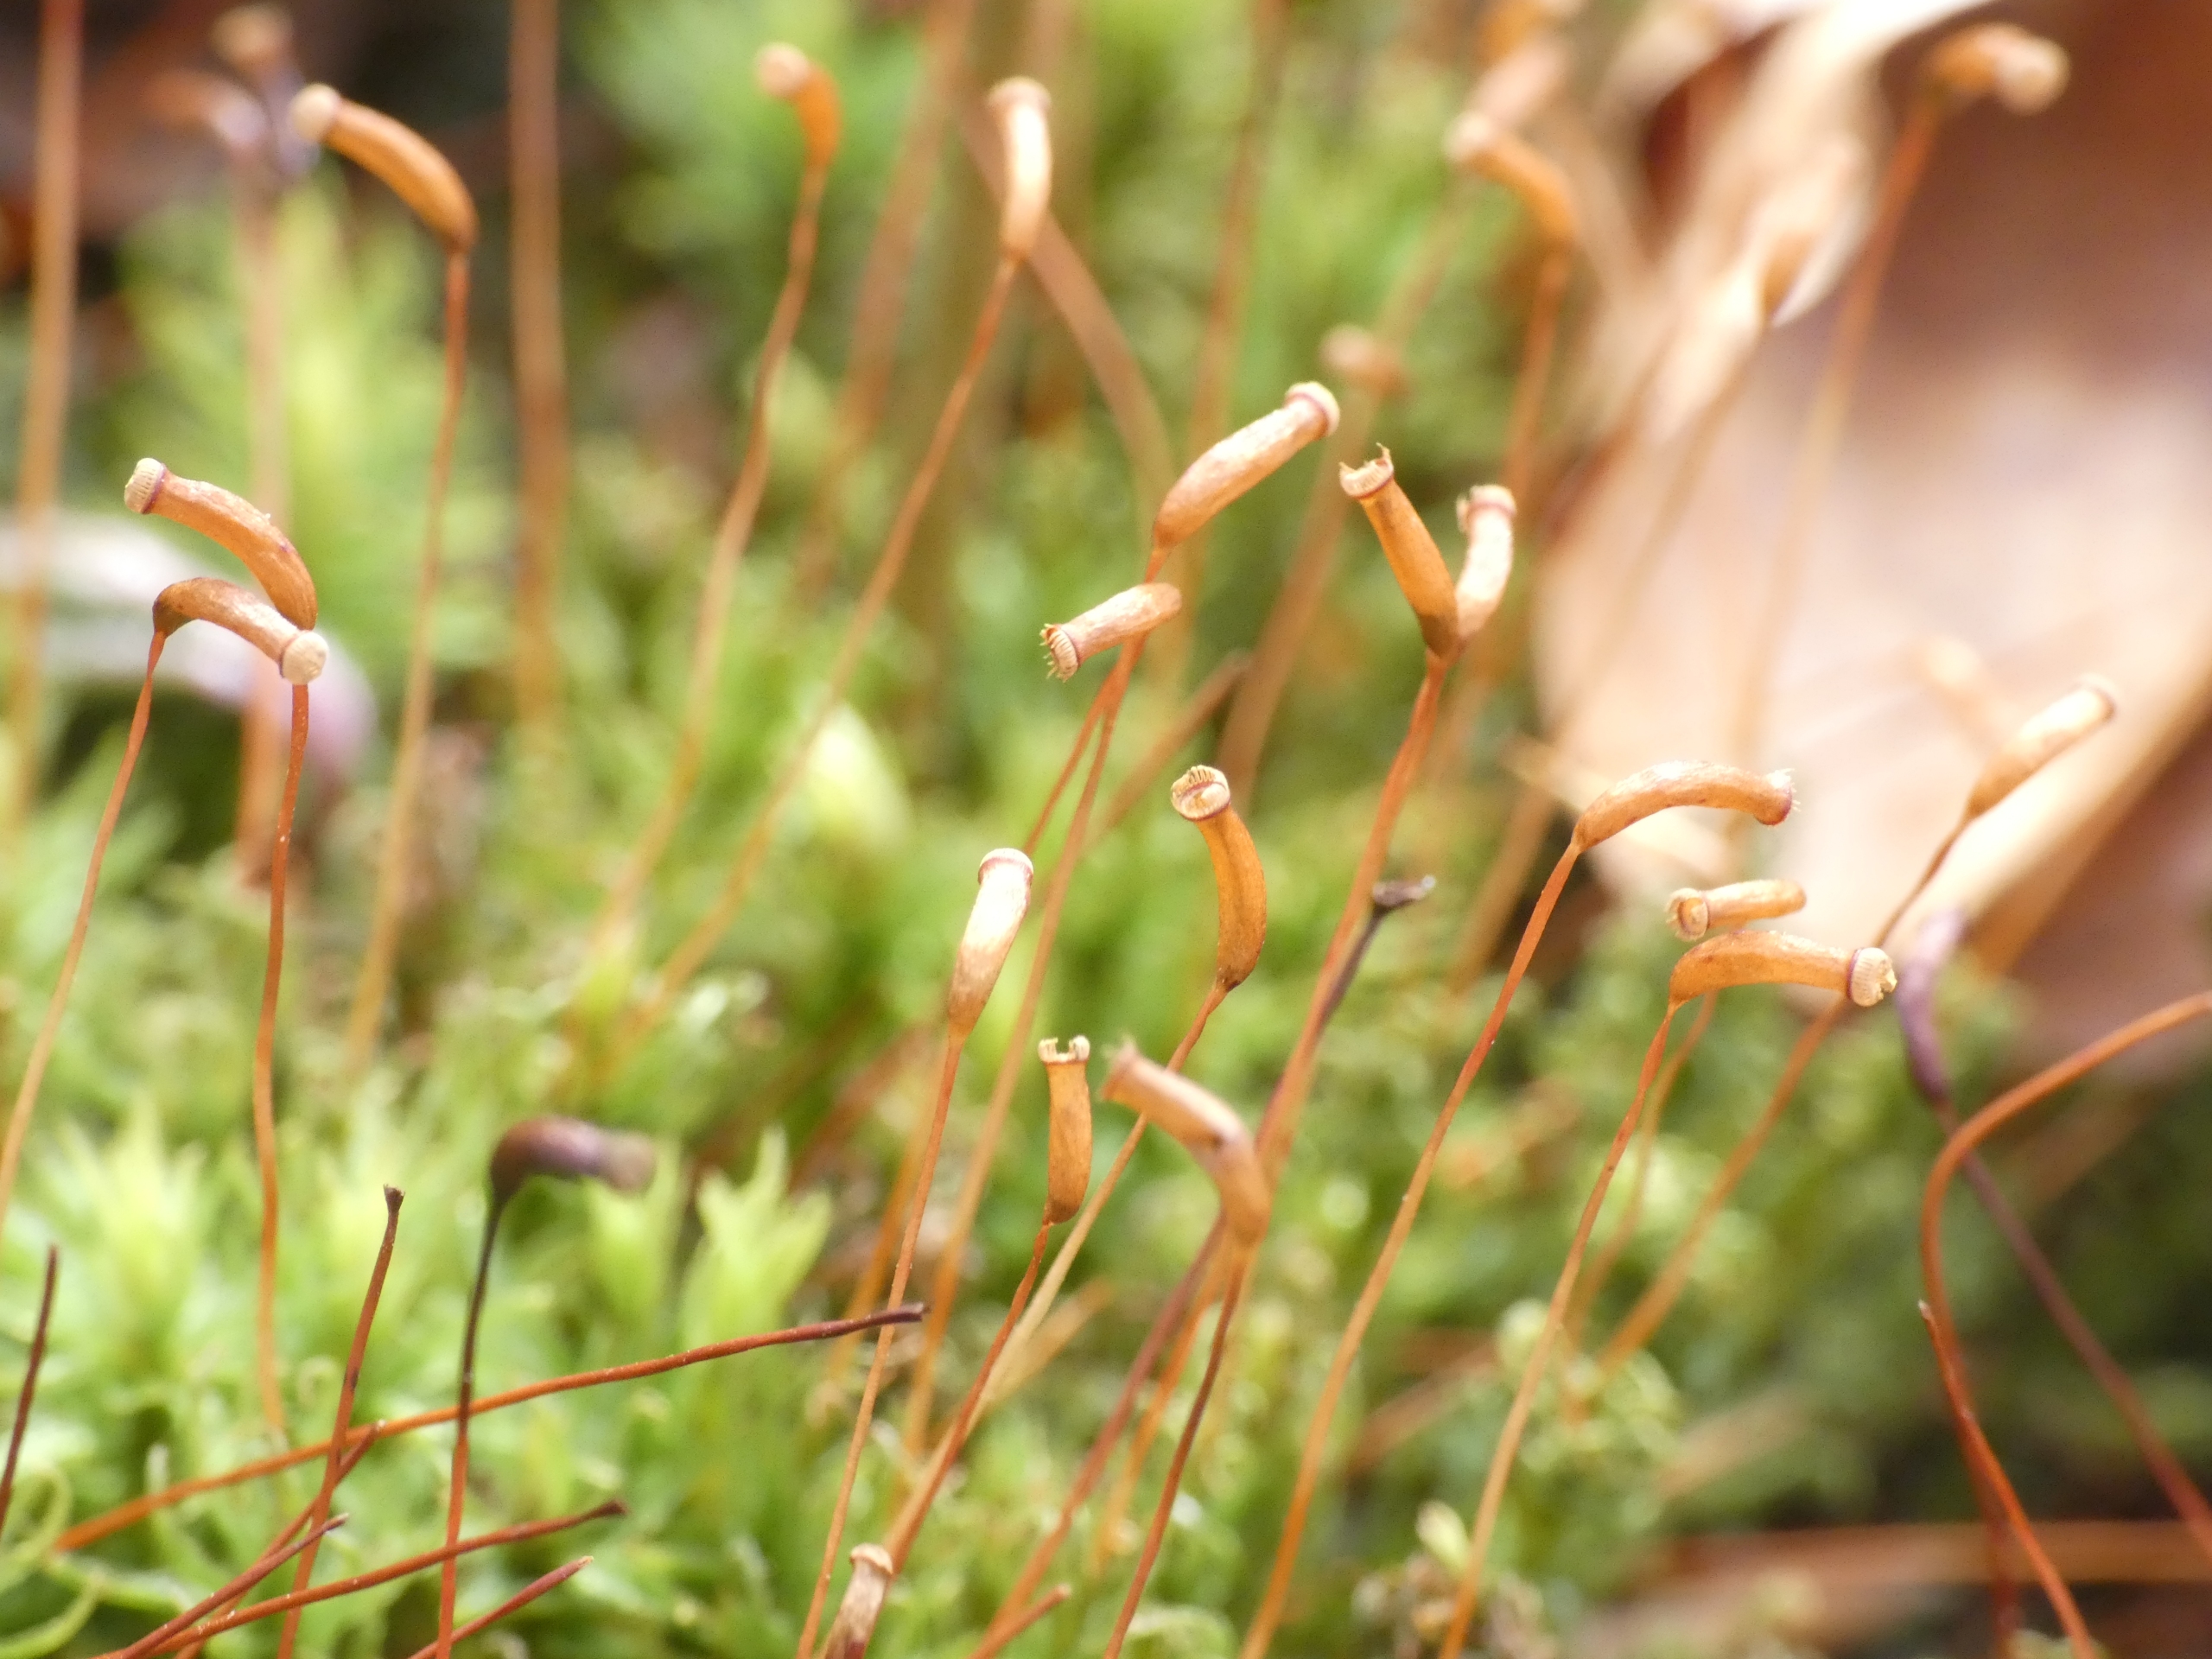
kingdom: Plantae
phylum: Bryophyta
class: Polytrichopsida
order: Polytrichales
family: Polytrichaceae
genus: Atrichum
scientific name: Atrichum undulatum
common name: Bølget katrinemos
